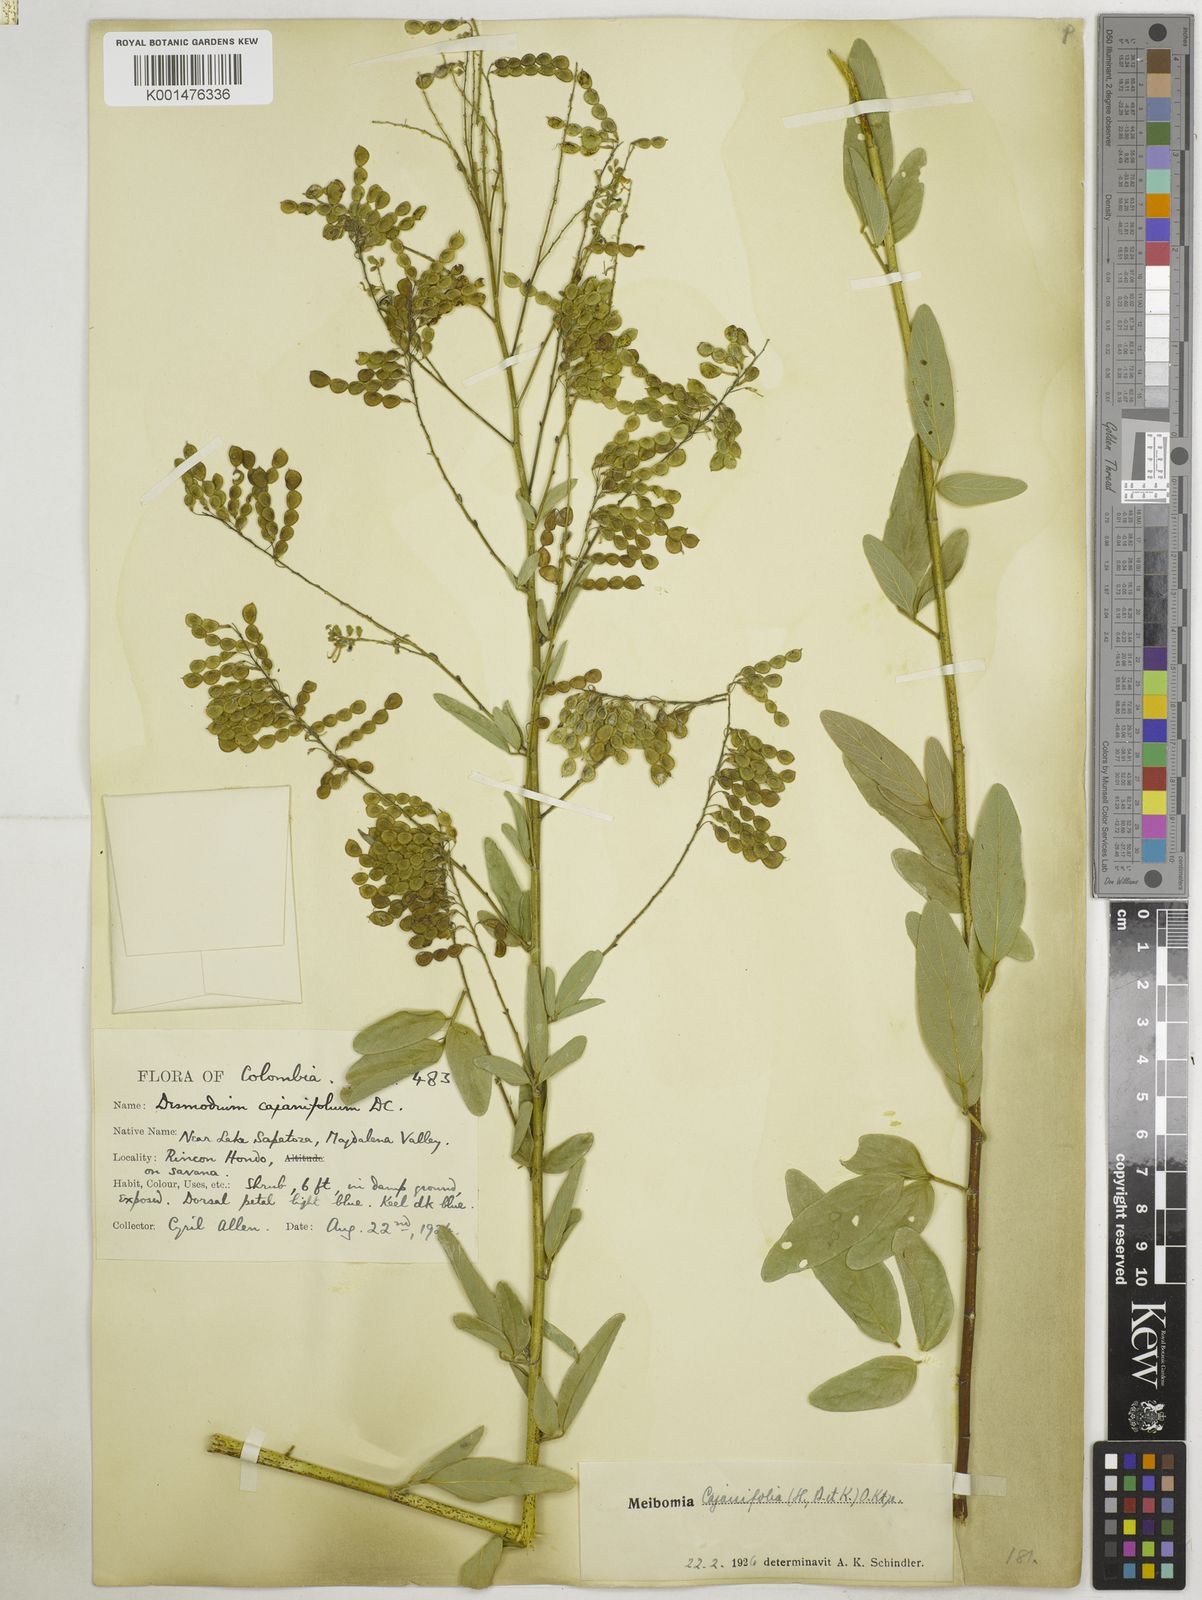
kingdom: Plantae
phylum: Tracheophyta
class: Magnoliopsida
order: Fabales
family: Fabaceae
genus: Desmodium
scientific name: Desmodium cajanifolium
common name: Tropical ticktrefoil
